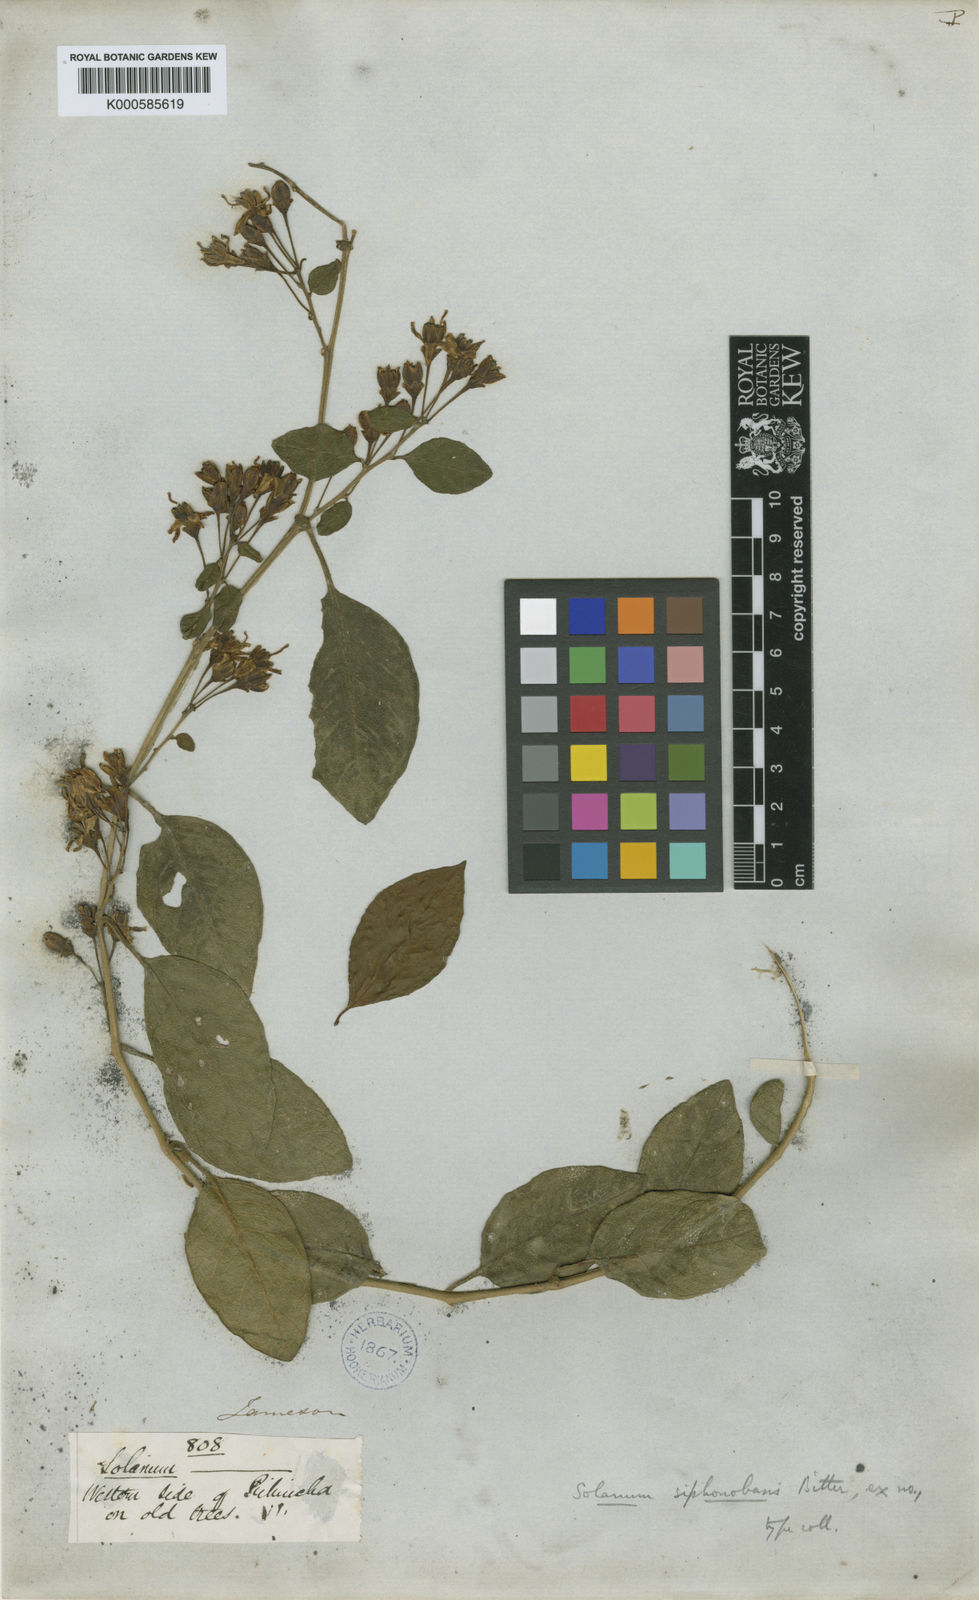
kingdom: Plantae
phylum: Tracheophyta
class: Magnoliopsida
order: Solanales
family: Solanaceae
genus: Solanum
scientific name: Solanum siphonobasis
